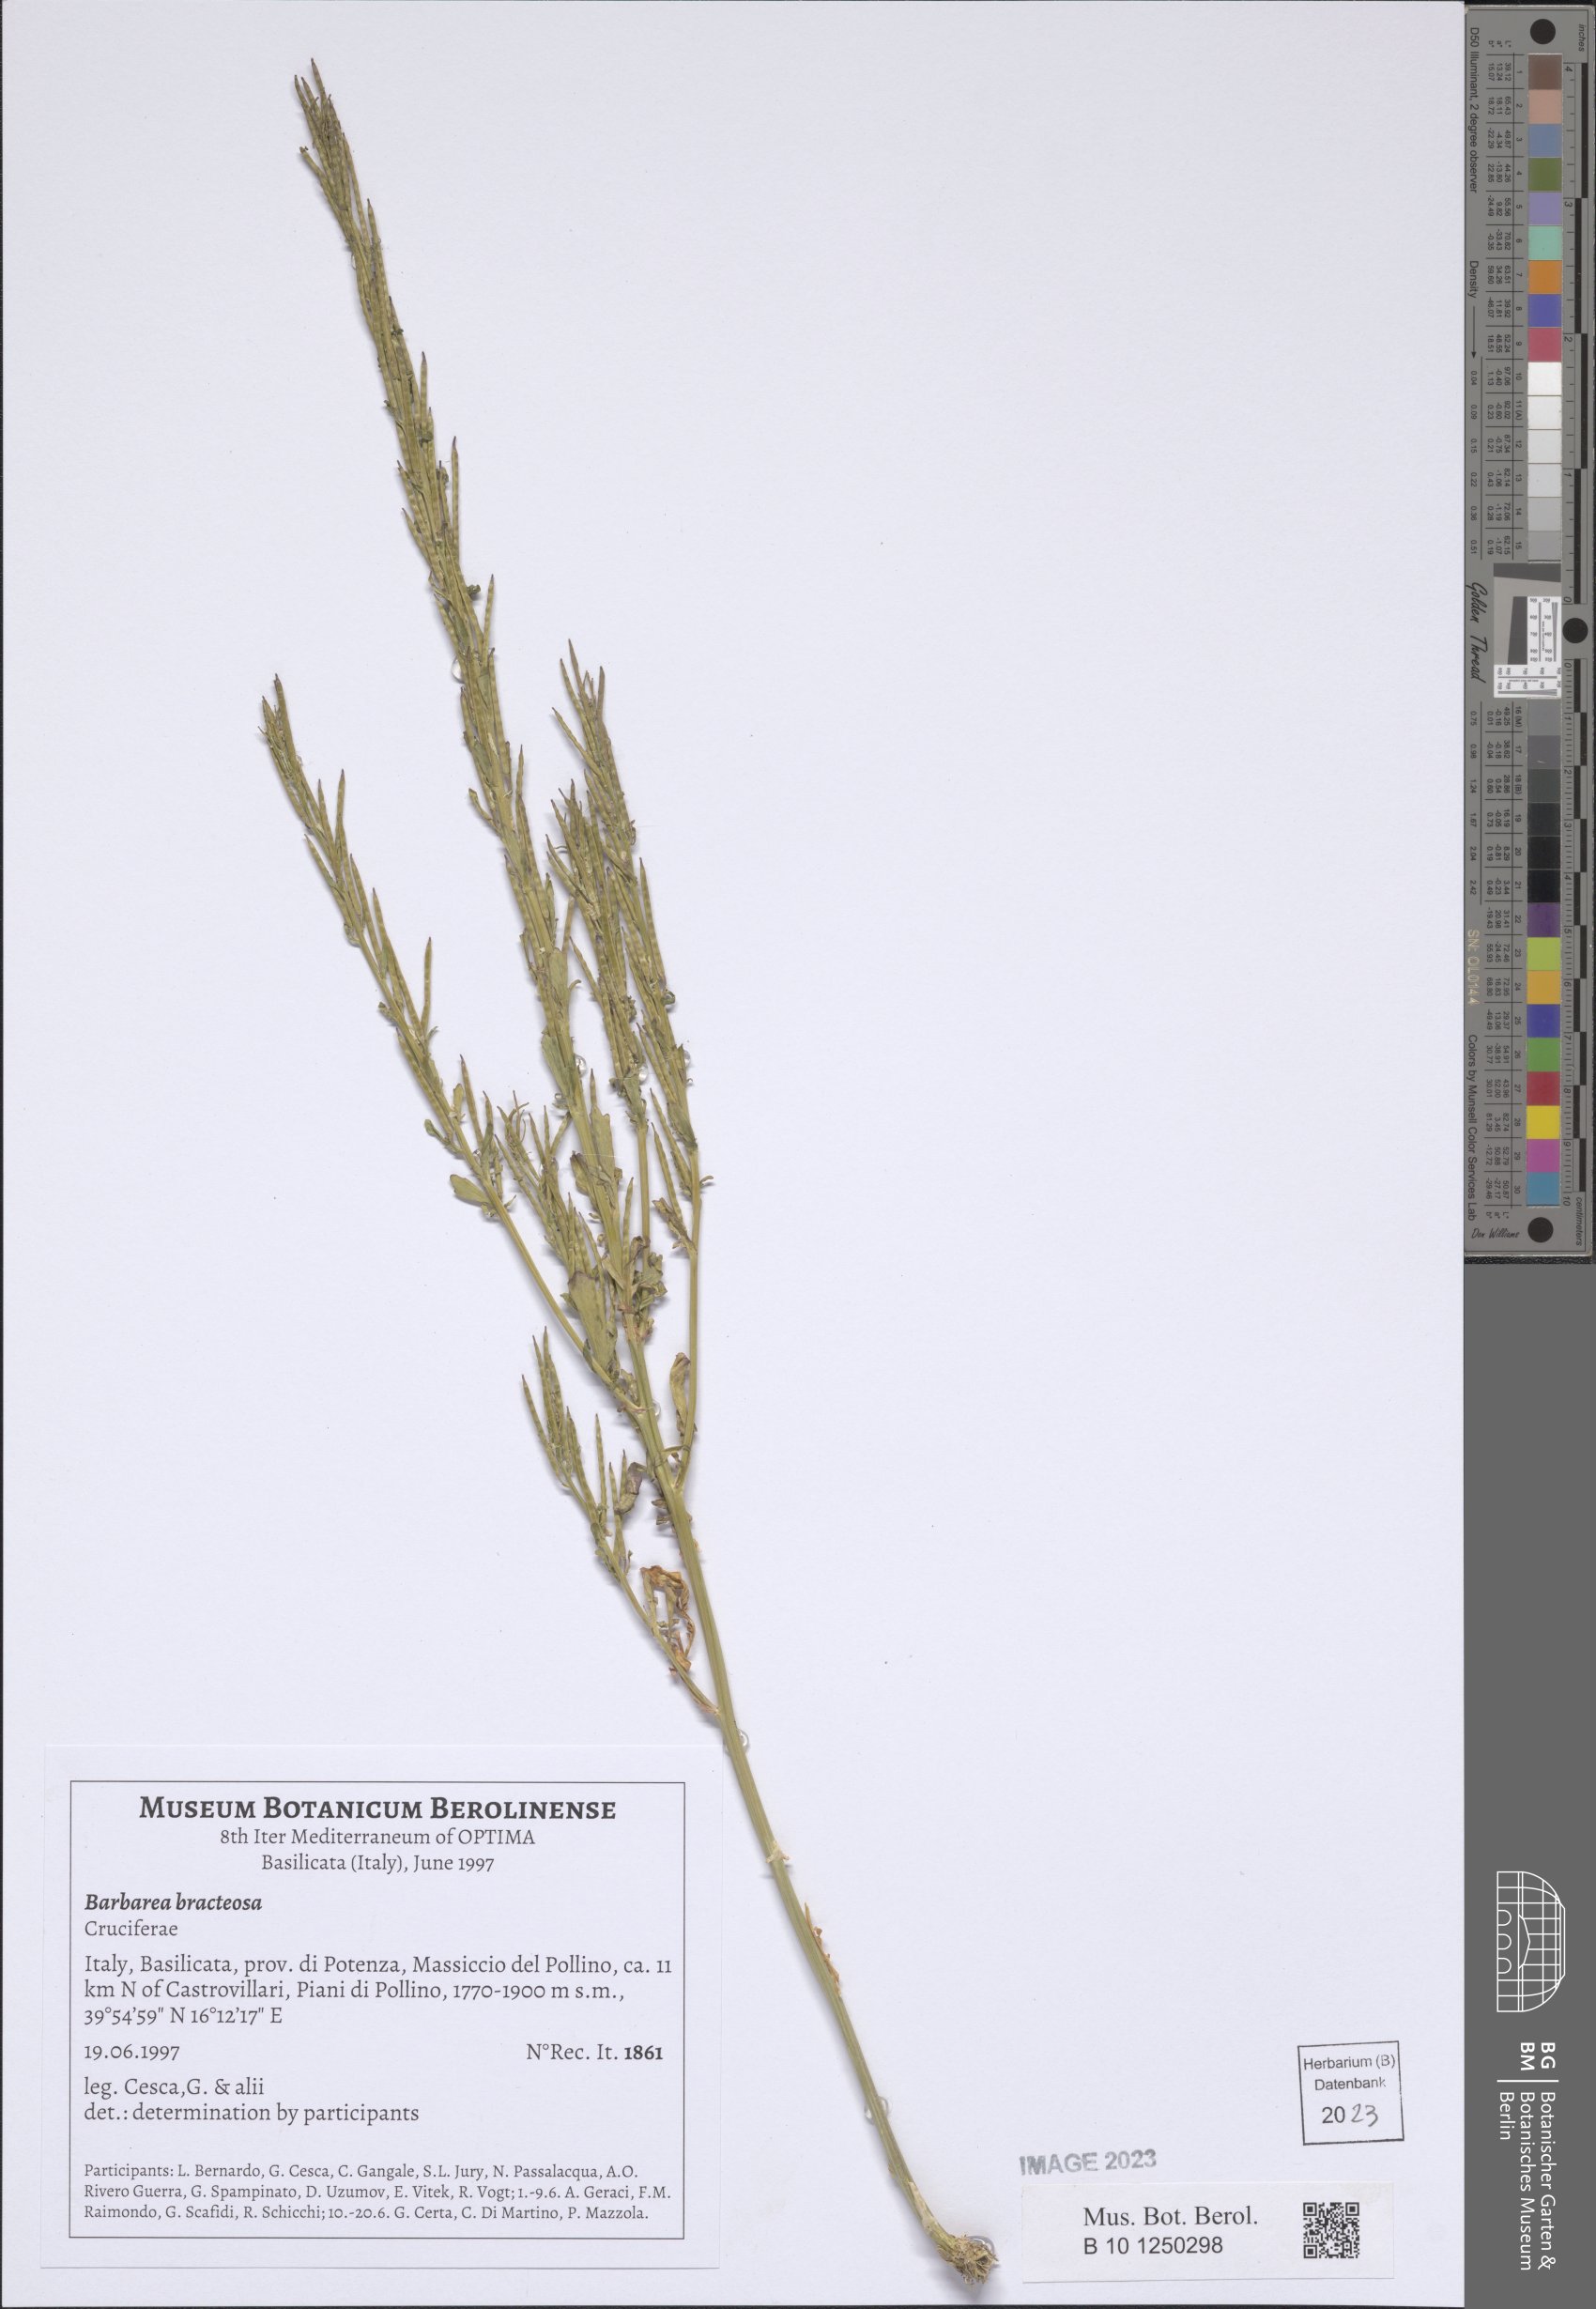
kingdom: Plantae
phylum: Tracheophyta
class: Magnoliopsida
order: Brassicales
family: Brassicaceae
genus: Barbarea
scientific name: Barbarea bracteosa
